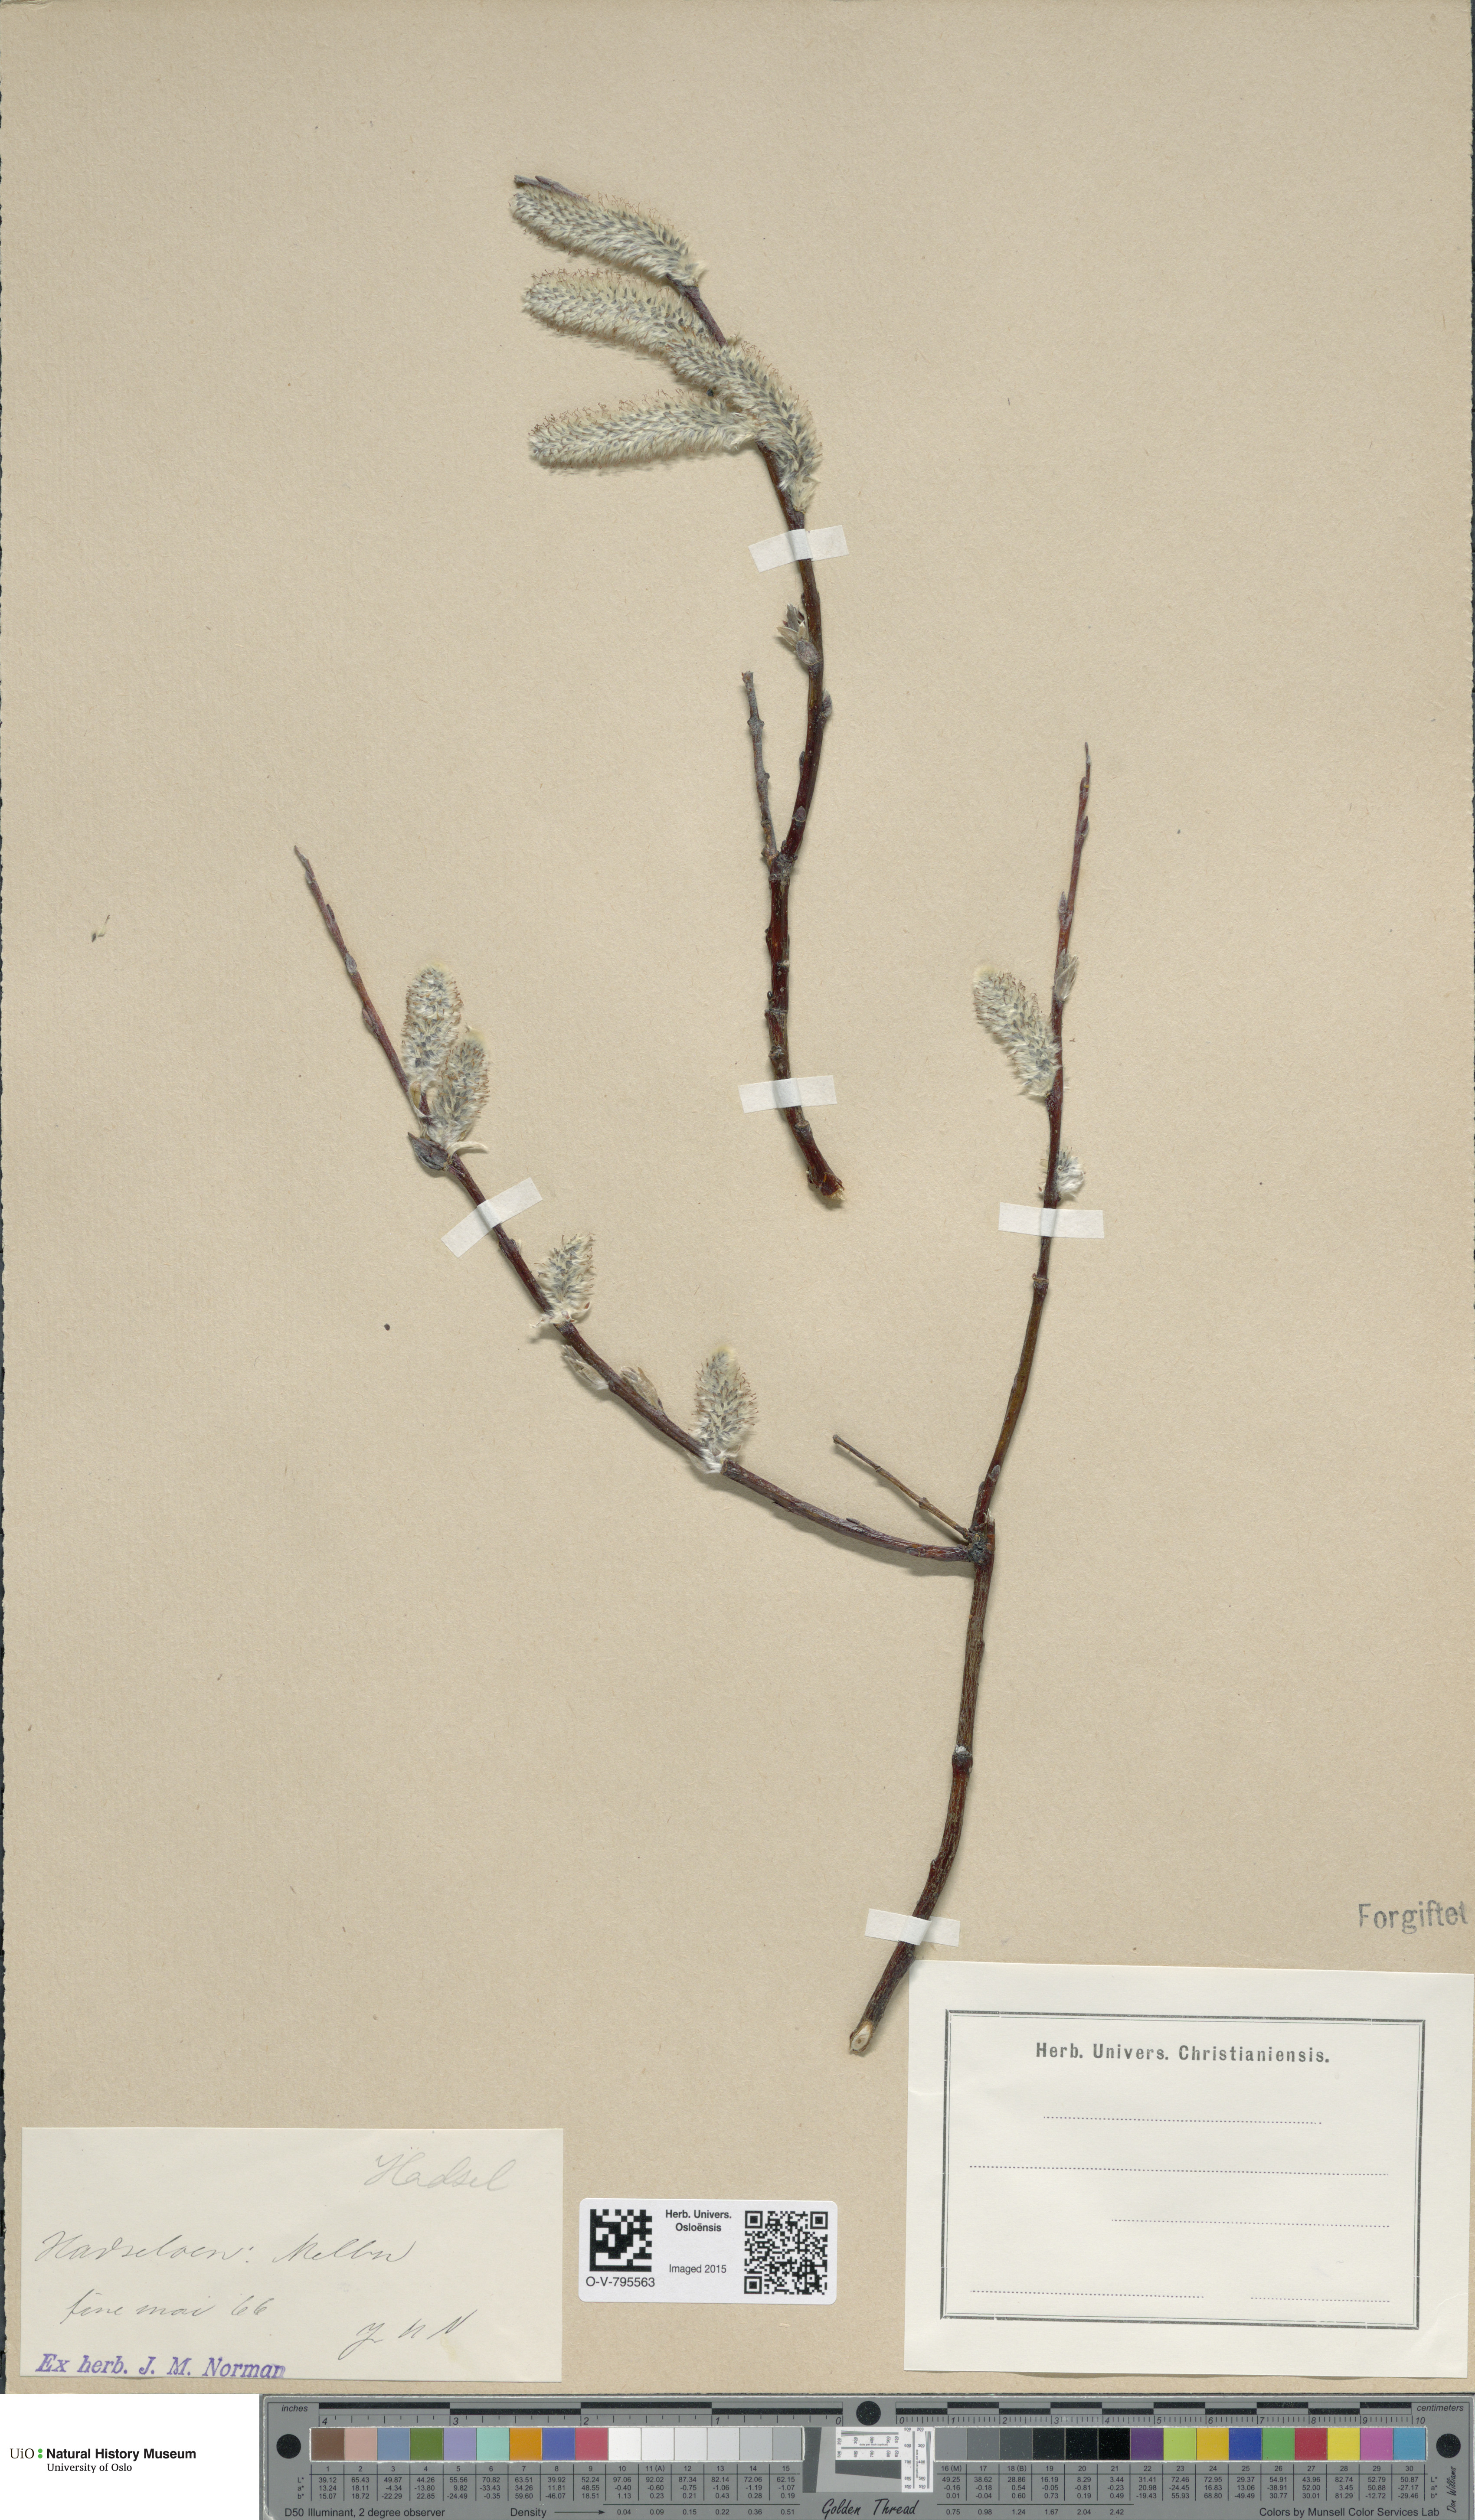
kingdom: Plantae
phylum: Tracheophyta
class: Magnoliopsida
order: Malpighiales
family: Salicaceae
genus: Salix
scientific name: Salix lapponum
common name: Downy willow
